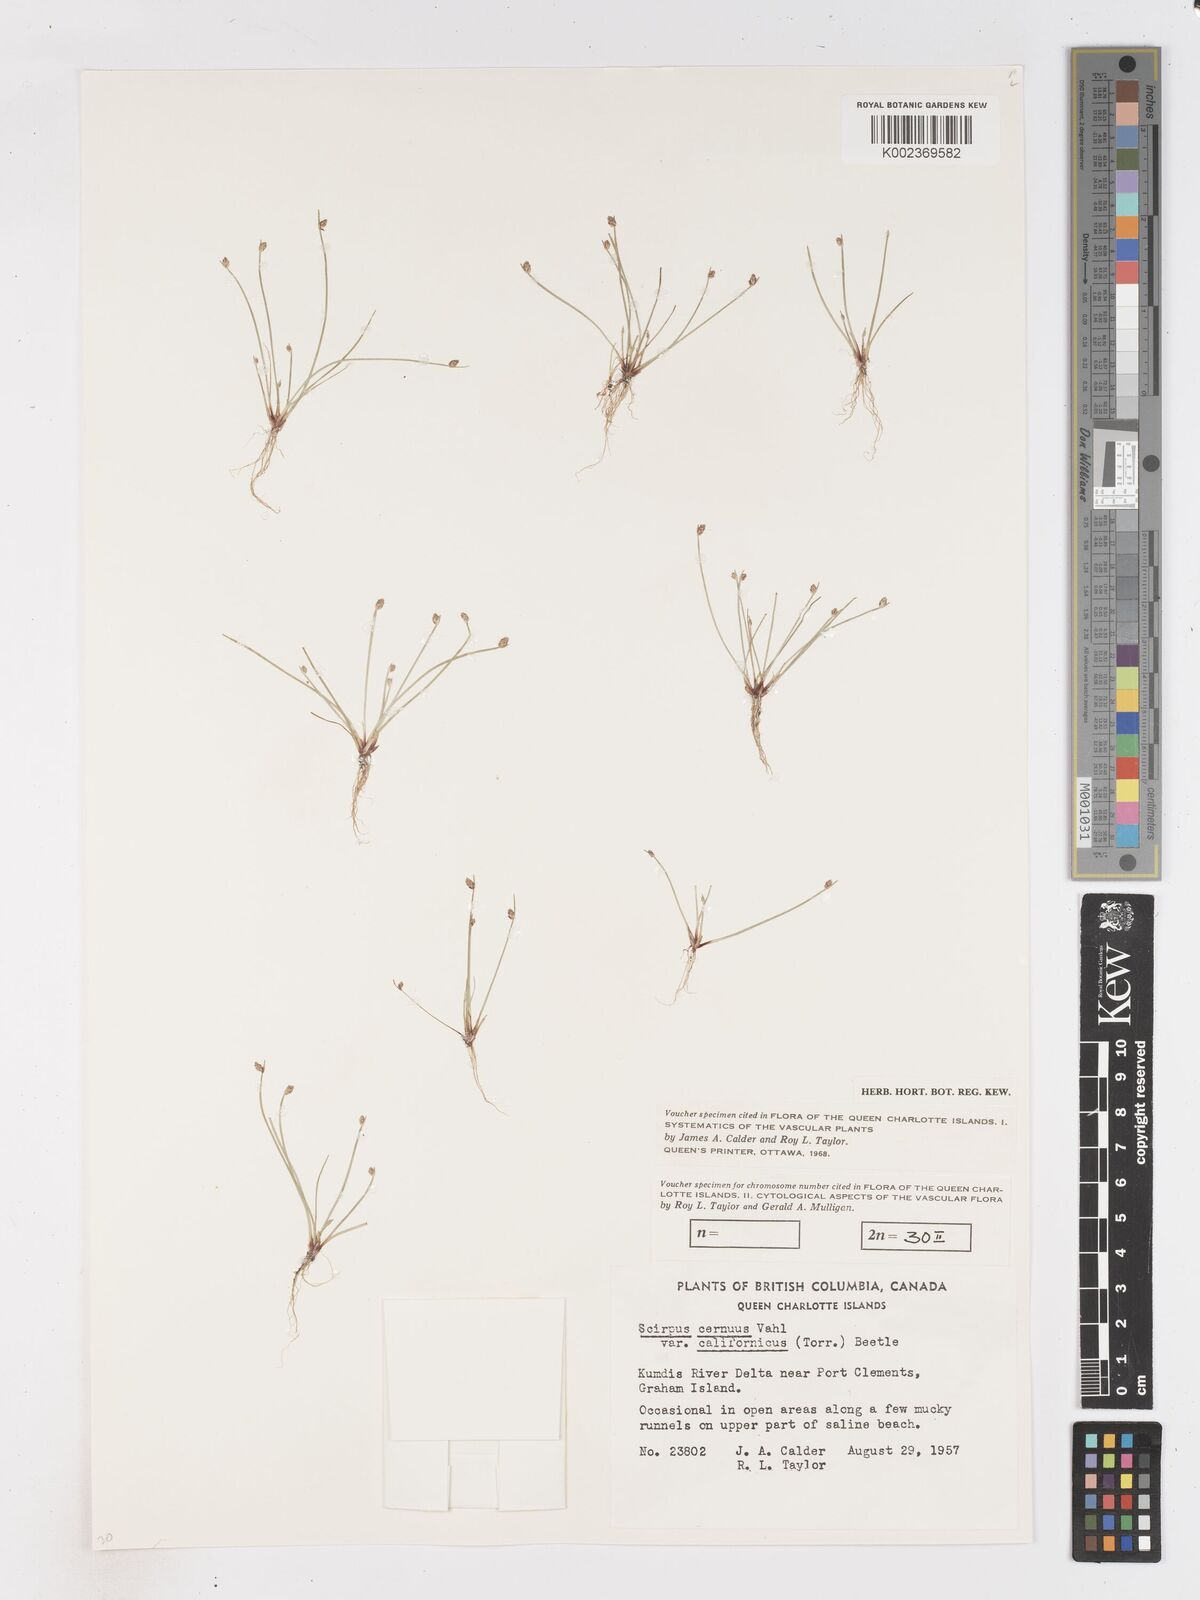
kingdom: Plantae
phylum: Tracheophyta
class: Liliopsida
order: Poales
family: Cyperaceae
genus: Isolepis
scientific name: Isolepis cernua
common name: Slender club-rush
